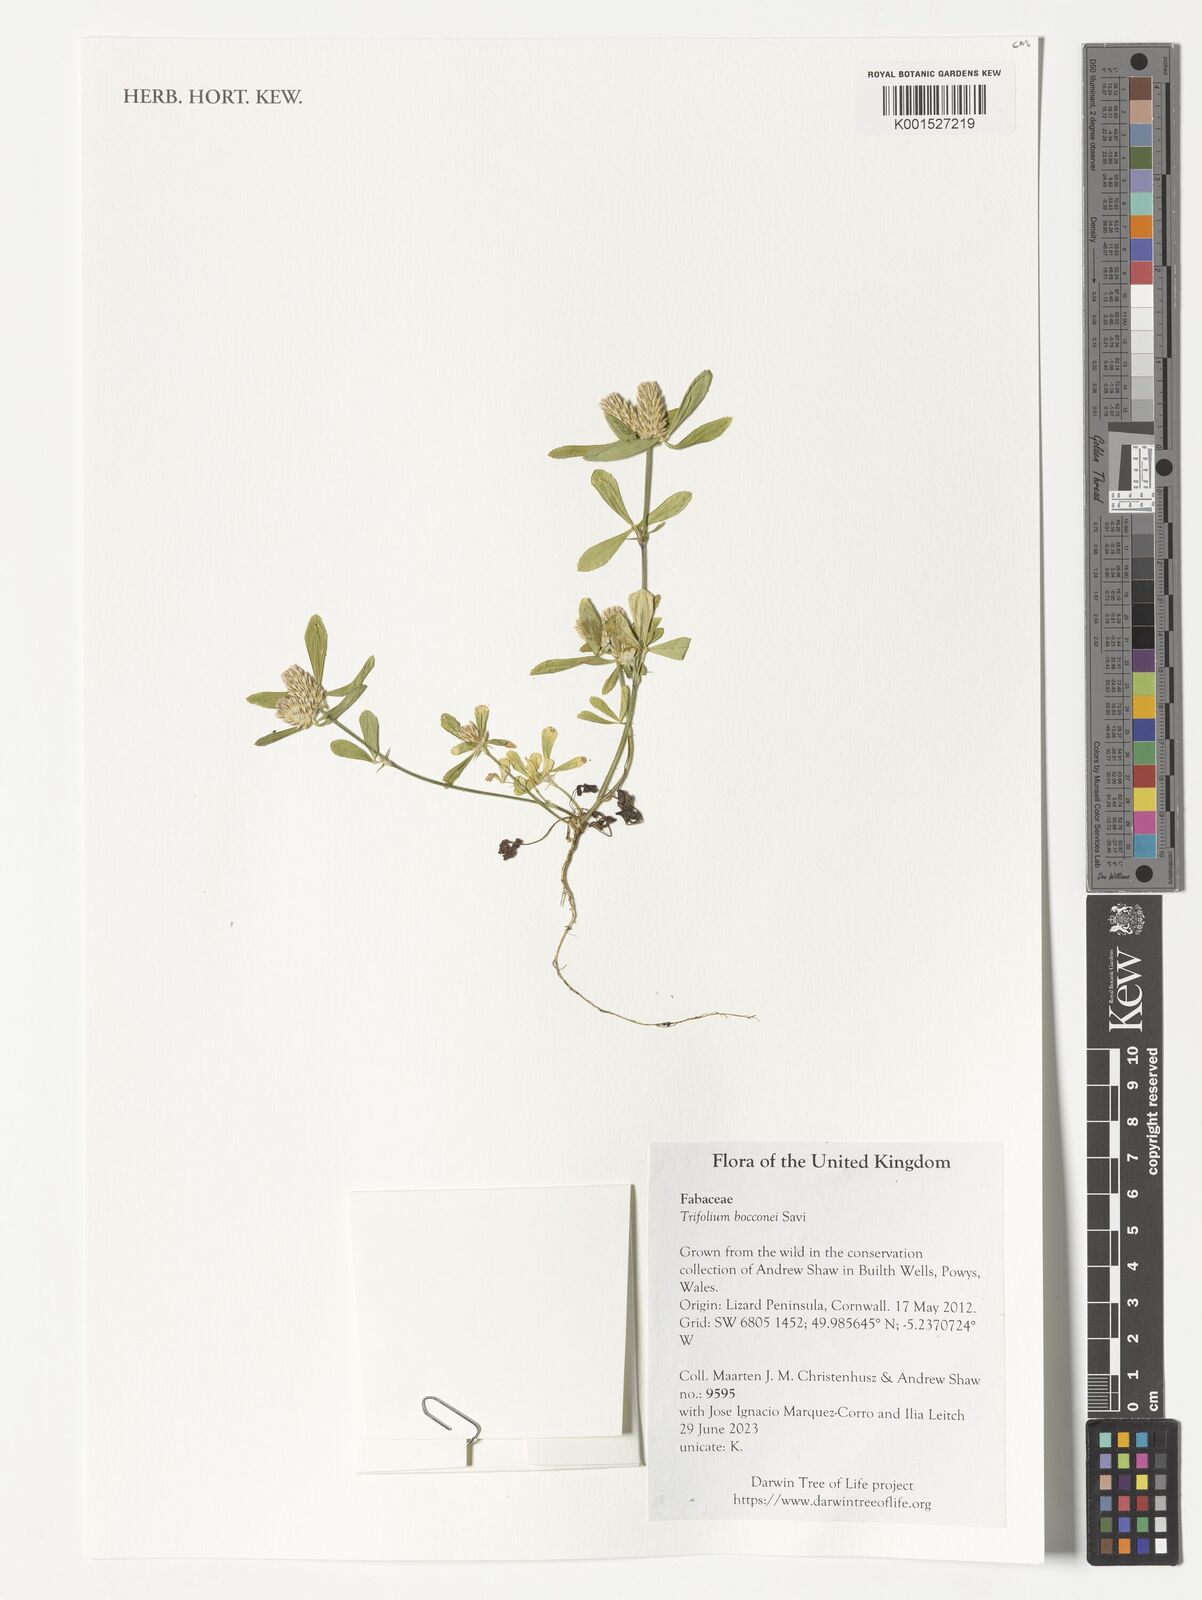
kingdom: Plantae
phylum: Tracheophyta
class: Magnoliopsida
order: Fabales
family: Fabaceae
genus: Trifolium
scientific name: Trifolium bocconei
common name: Twin-headed clover
